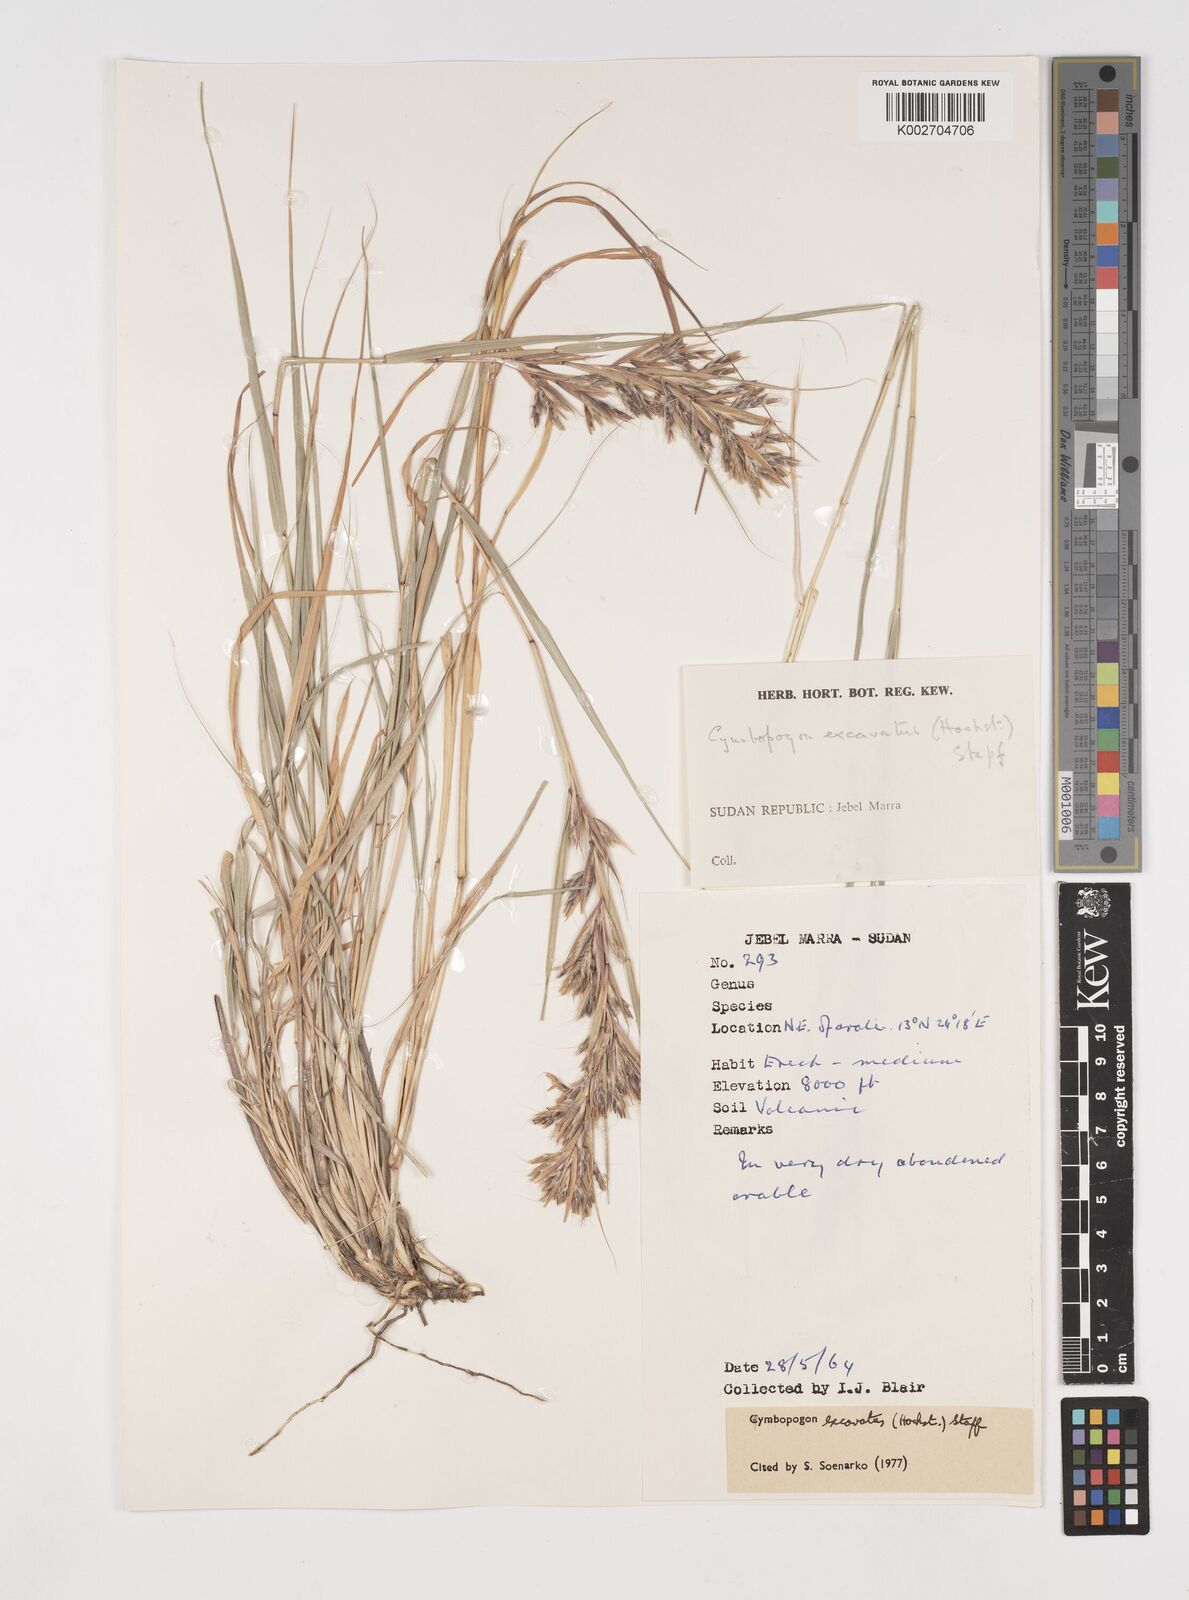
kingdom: Plantae
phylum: Tracheophyta
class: Liliopsida
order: Poales
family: Poaceae
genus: Cymbopogon
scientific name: Cymbopogon
